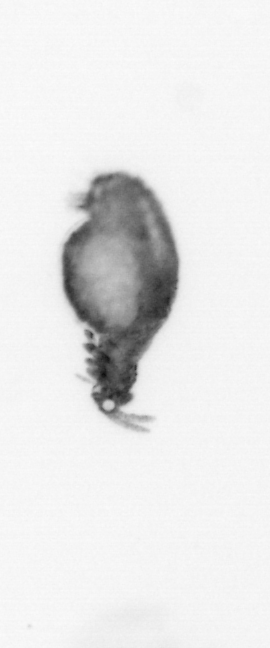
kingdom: Animalia
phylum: Annelida
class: Polychaeta
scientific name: Polychaeta
